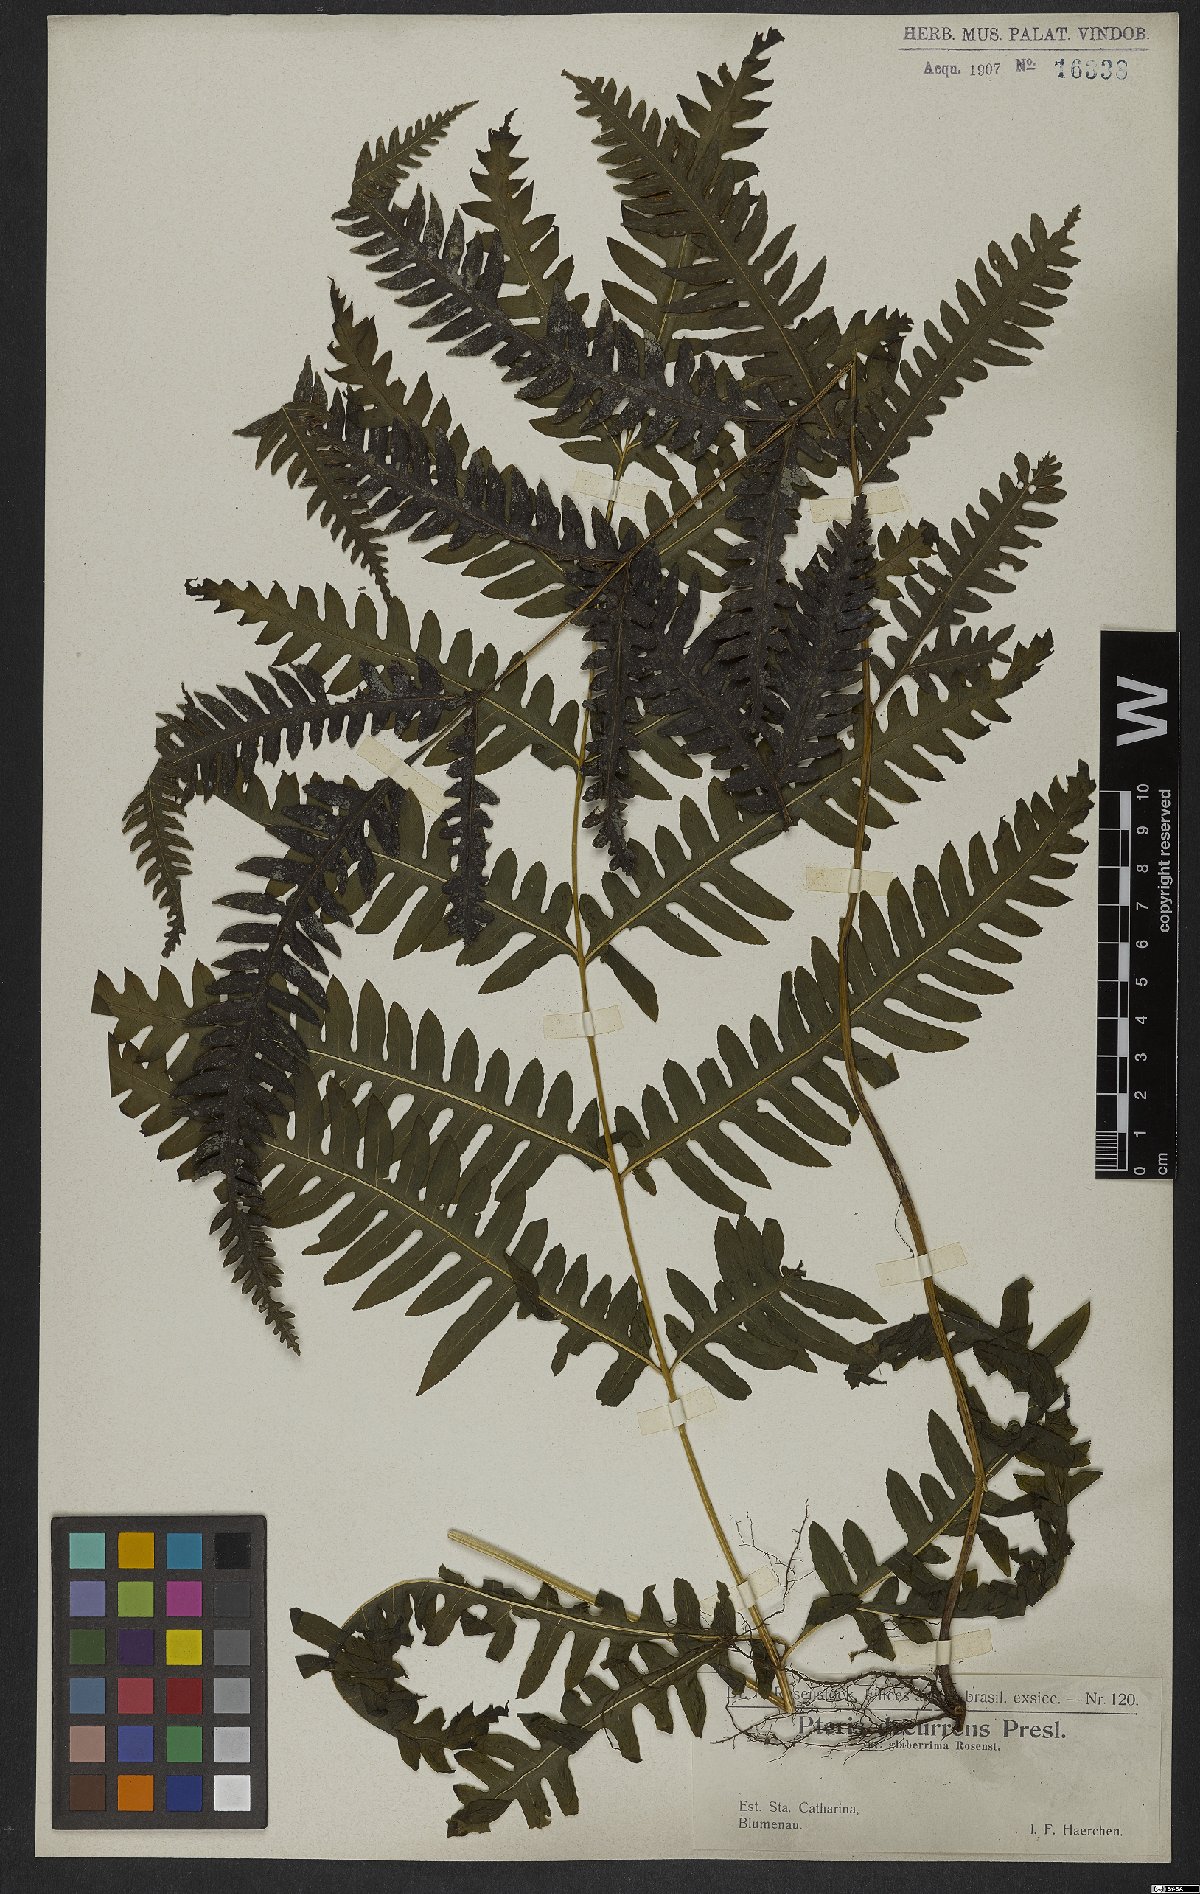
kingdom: Plantae
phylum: Tracheophyta
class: Polypodiopsida
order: Polypodiales
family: Pteridaceae
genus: Pteris
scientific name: Pteris decurrens
